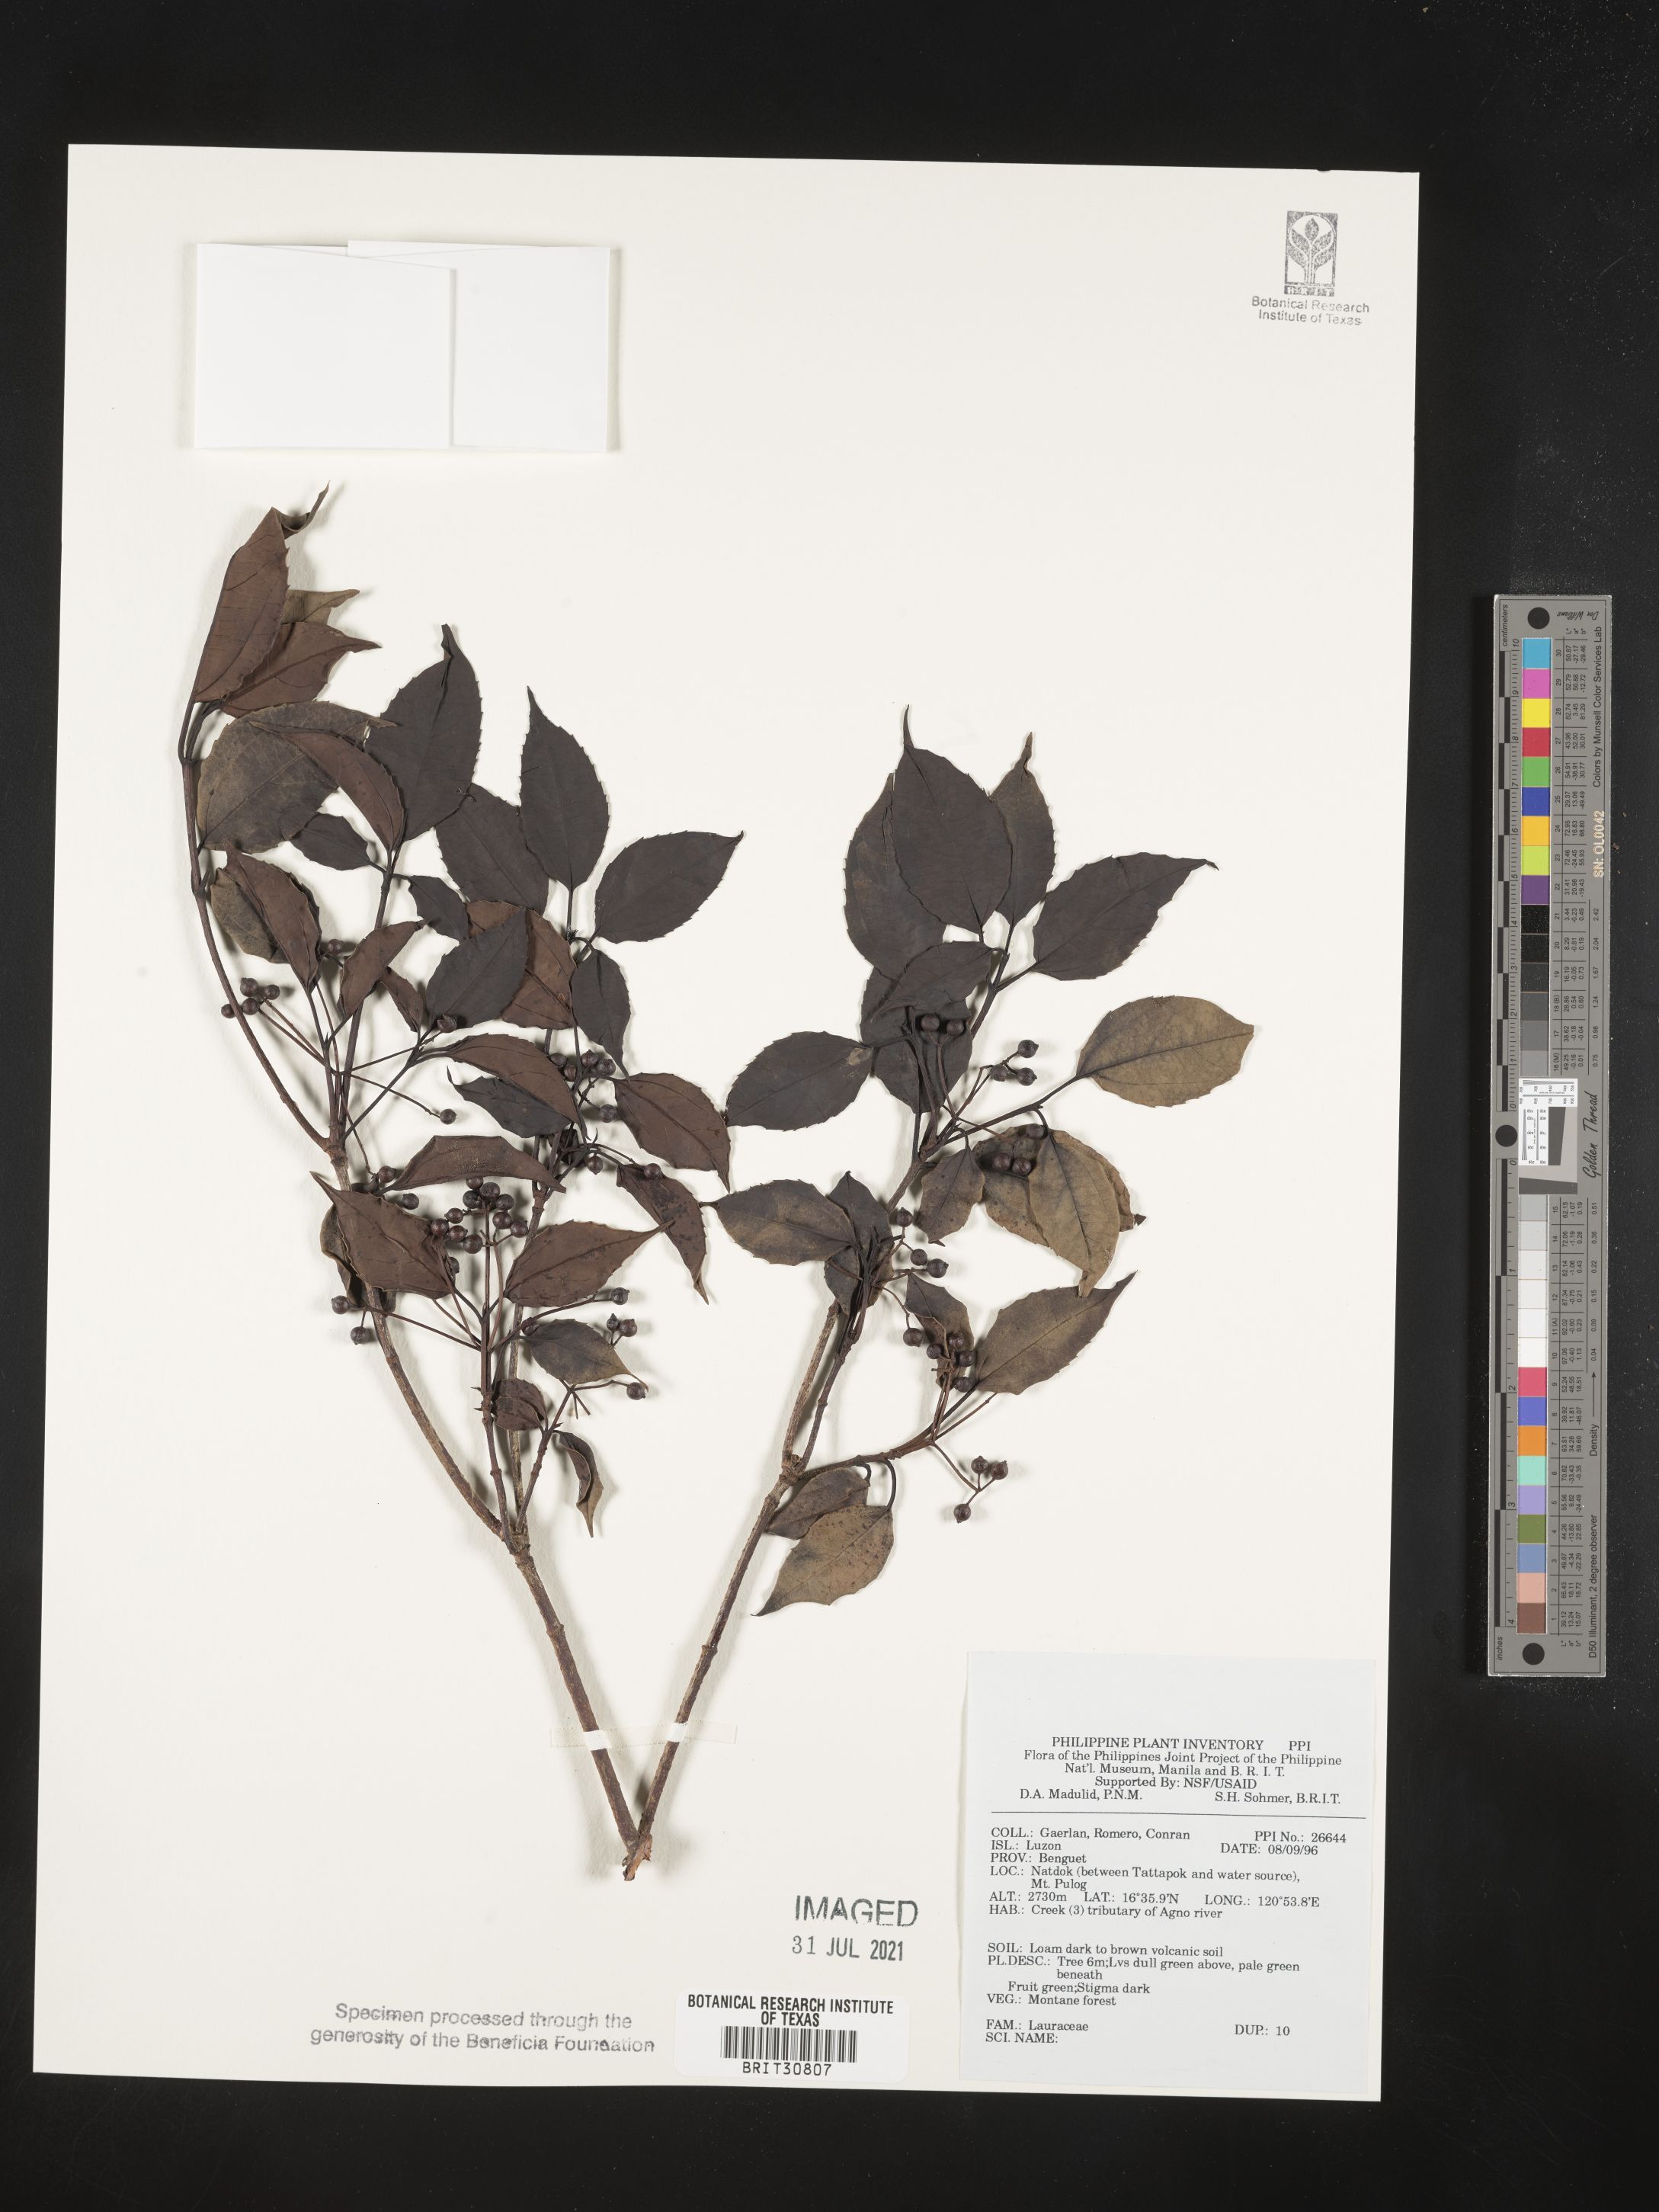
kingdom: Plantae
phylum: Tracheophyta
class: Magnoliopsida
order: Laurales
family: Lauraceae
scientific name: Lauraceae
